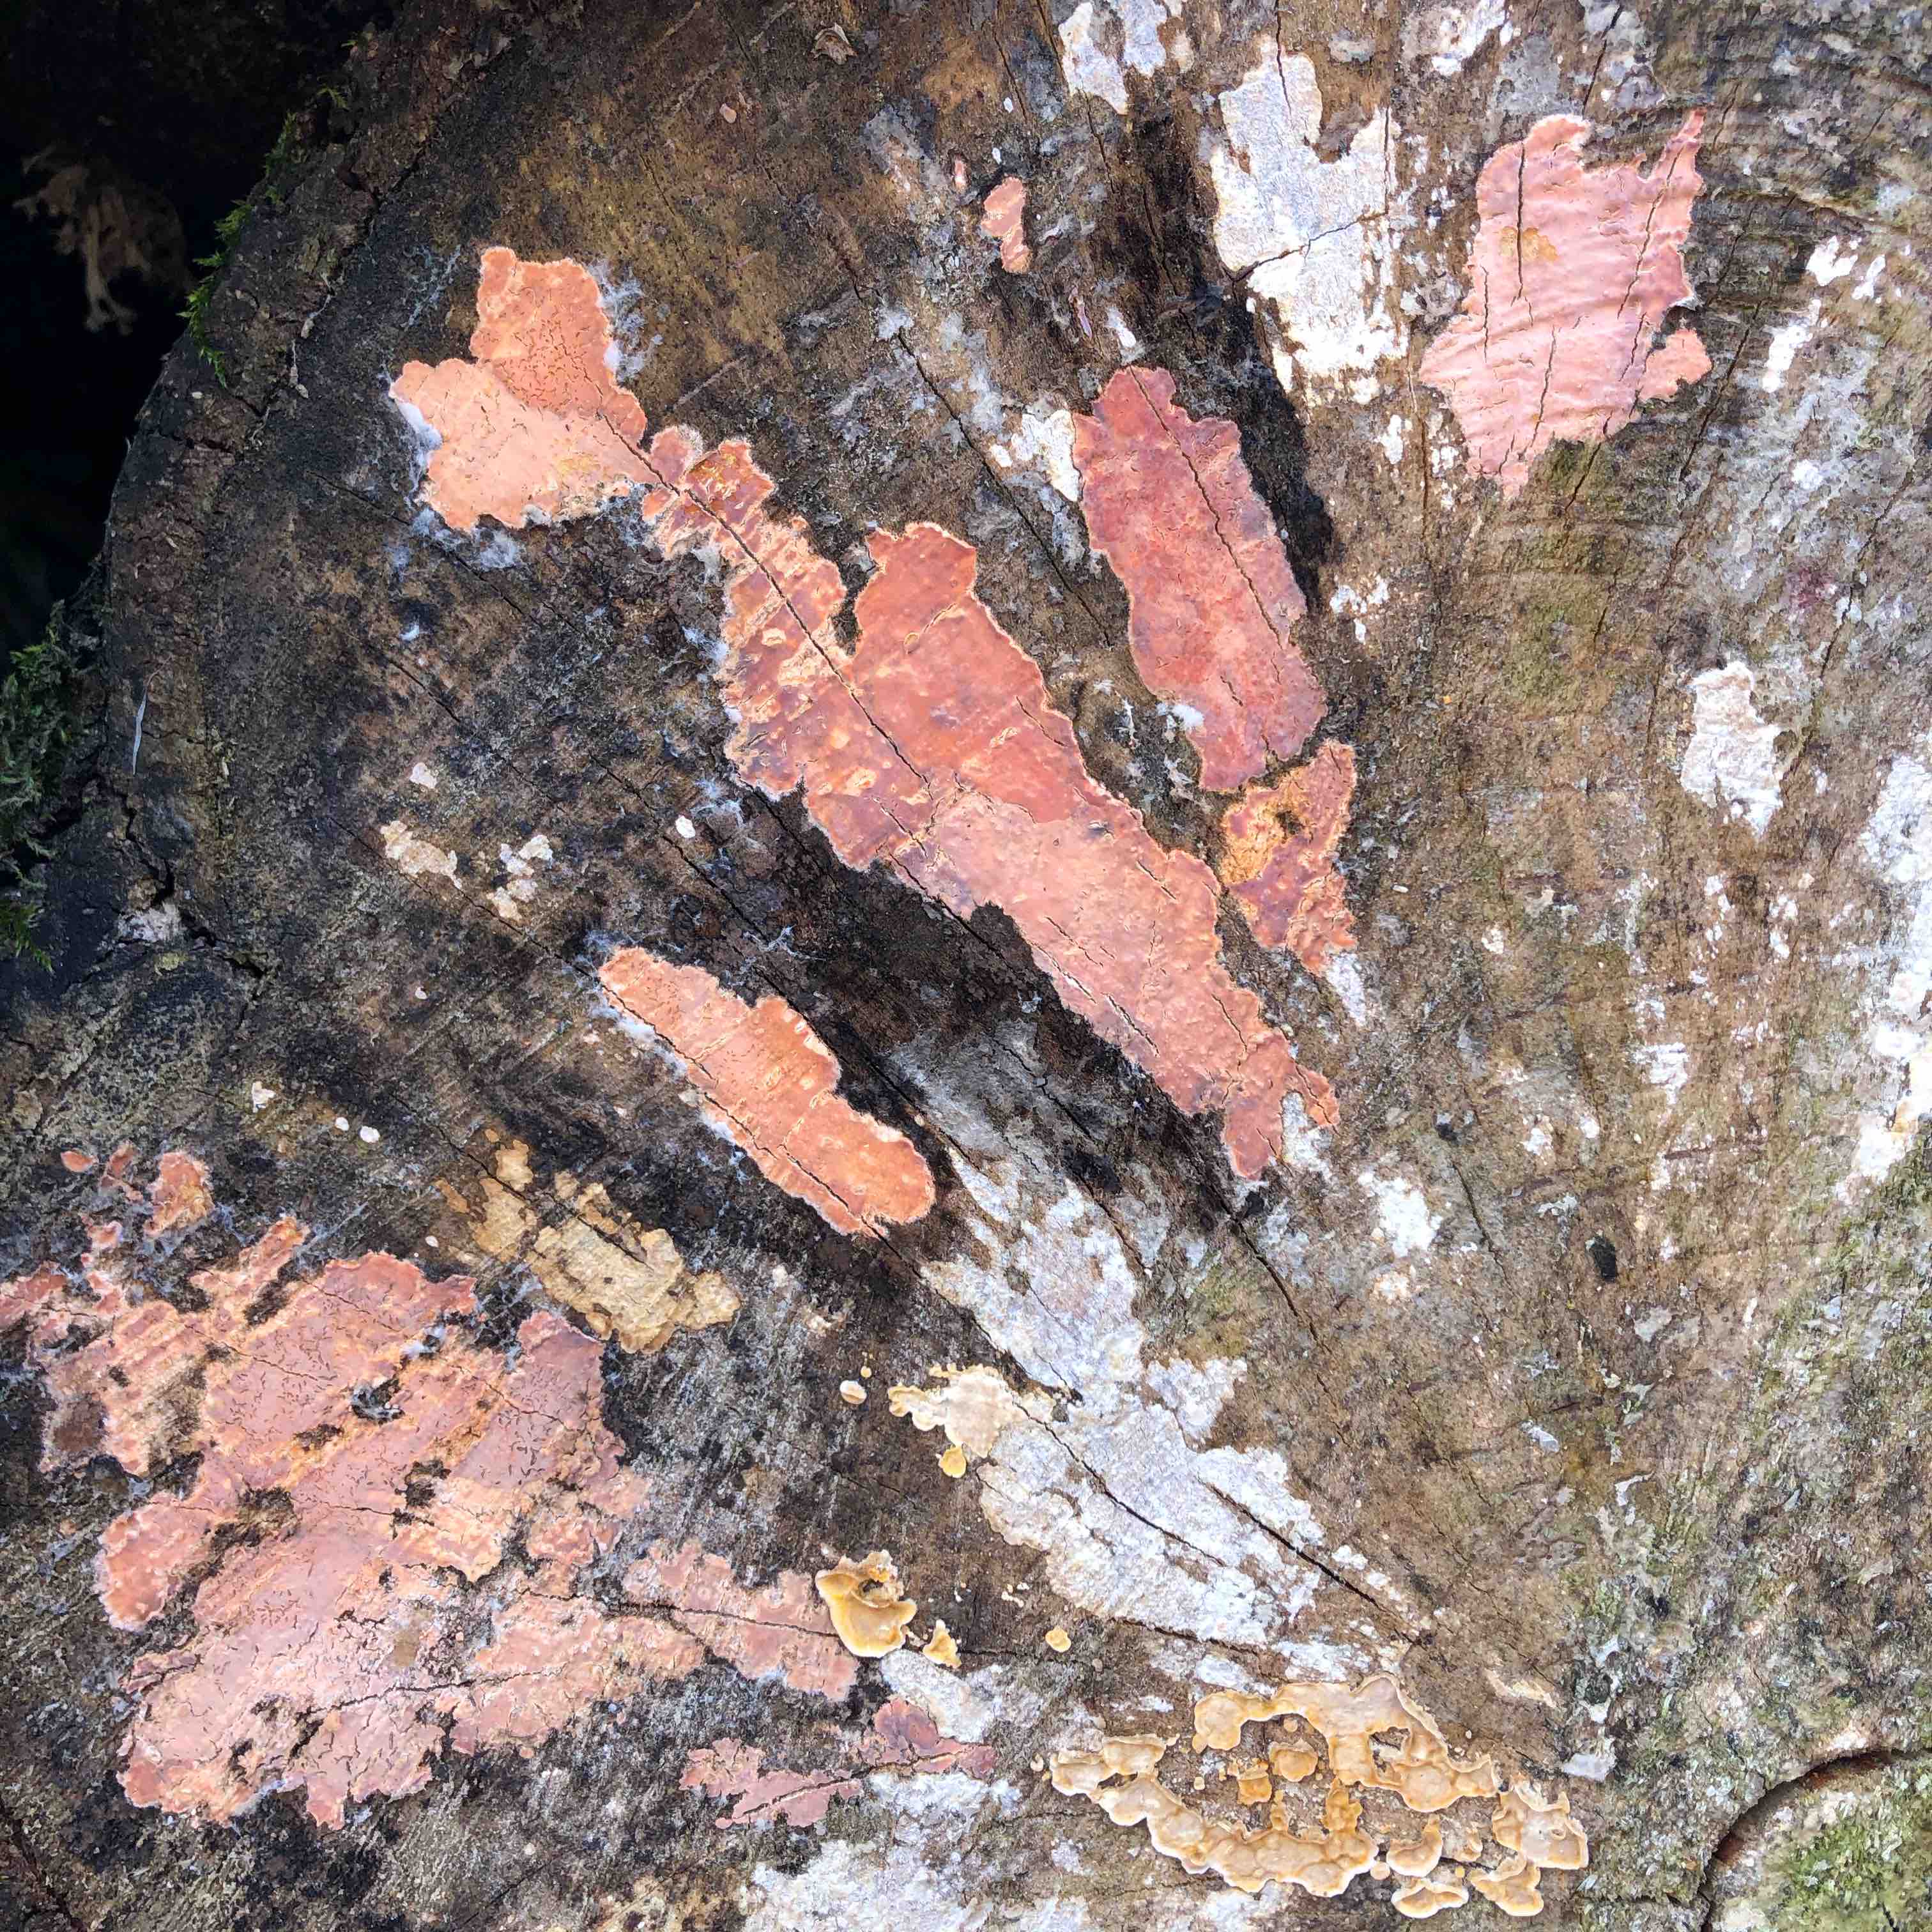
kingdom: Fungi
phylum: Basidiomycota
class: Agaricomycetes
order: Russulales
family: Peniophoraceae
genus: Peniophora
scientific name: Peniophora incarnata
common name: laksefarvet voksskind
